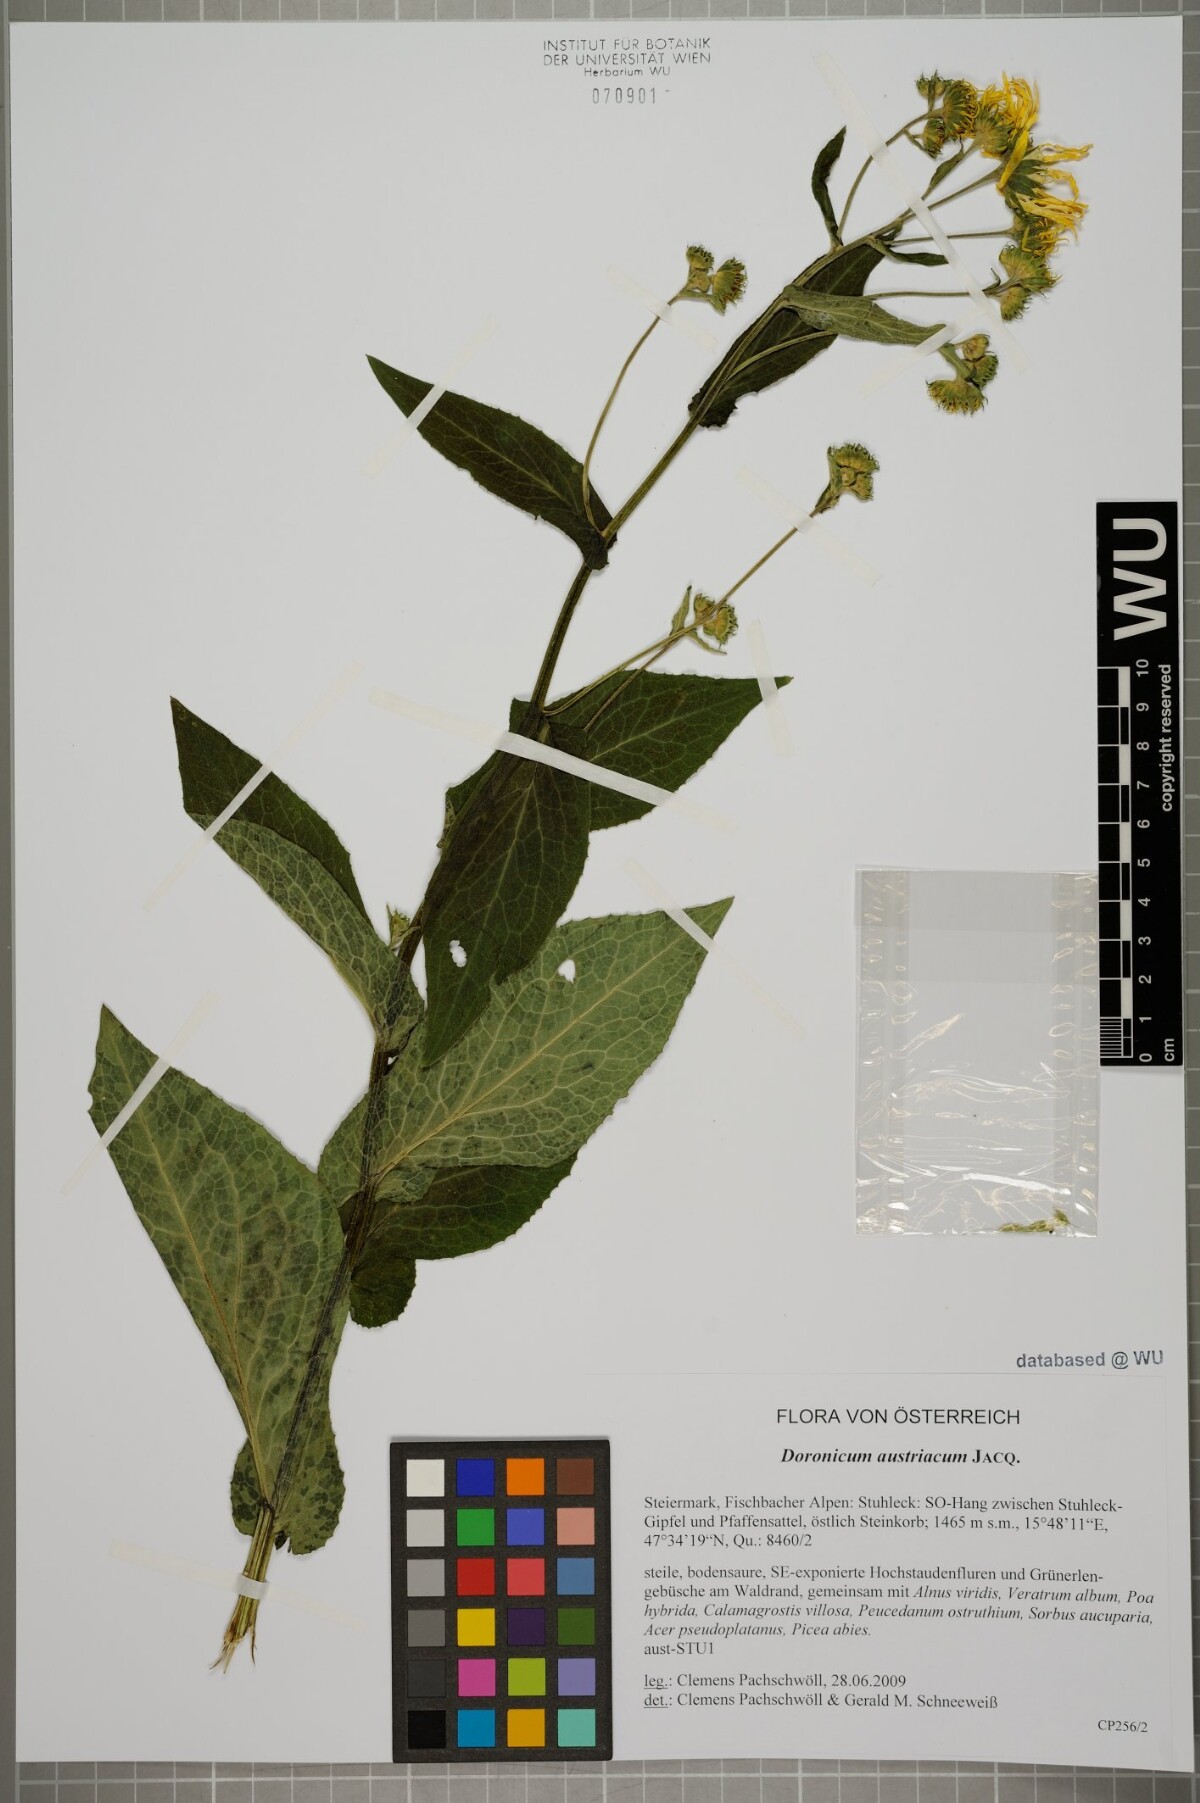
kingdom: Plantae
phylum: Tracheophyta
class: Magnoliopsida
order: Asterales
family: Asteraceae
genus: Doronicum
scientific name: Doronicum austriacum
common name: Austrian leopard's-bane
